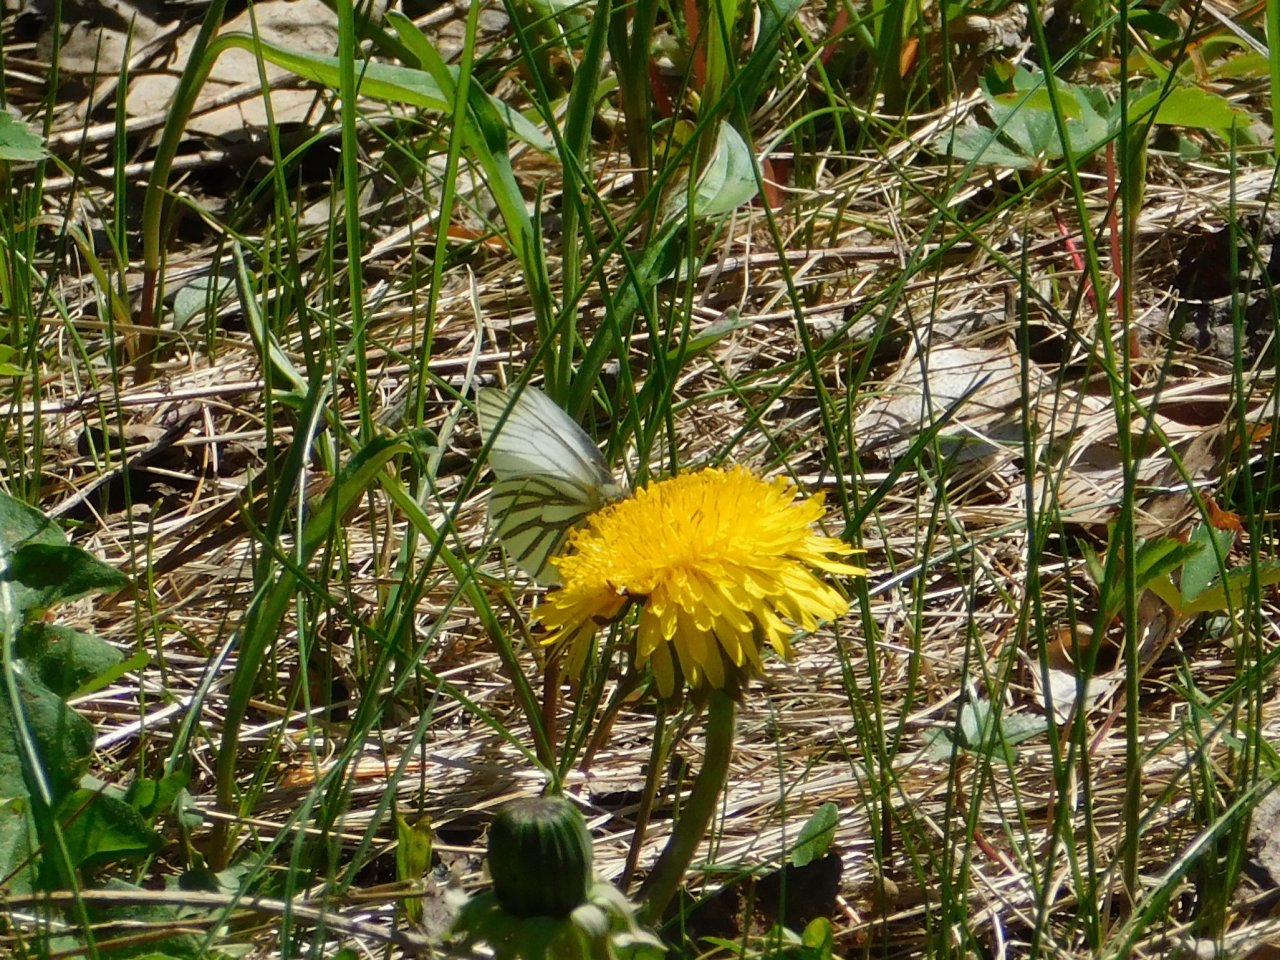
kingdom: Animalia
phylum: Arthropoda
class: Insecta
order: Lepidoptera
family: Pieridae
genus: Pieris
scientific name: Pieris oleracea
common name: Mustard White
